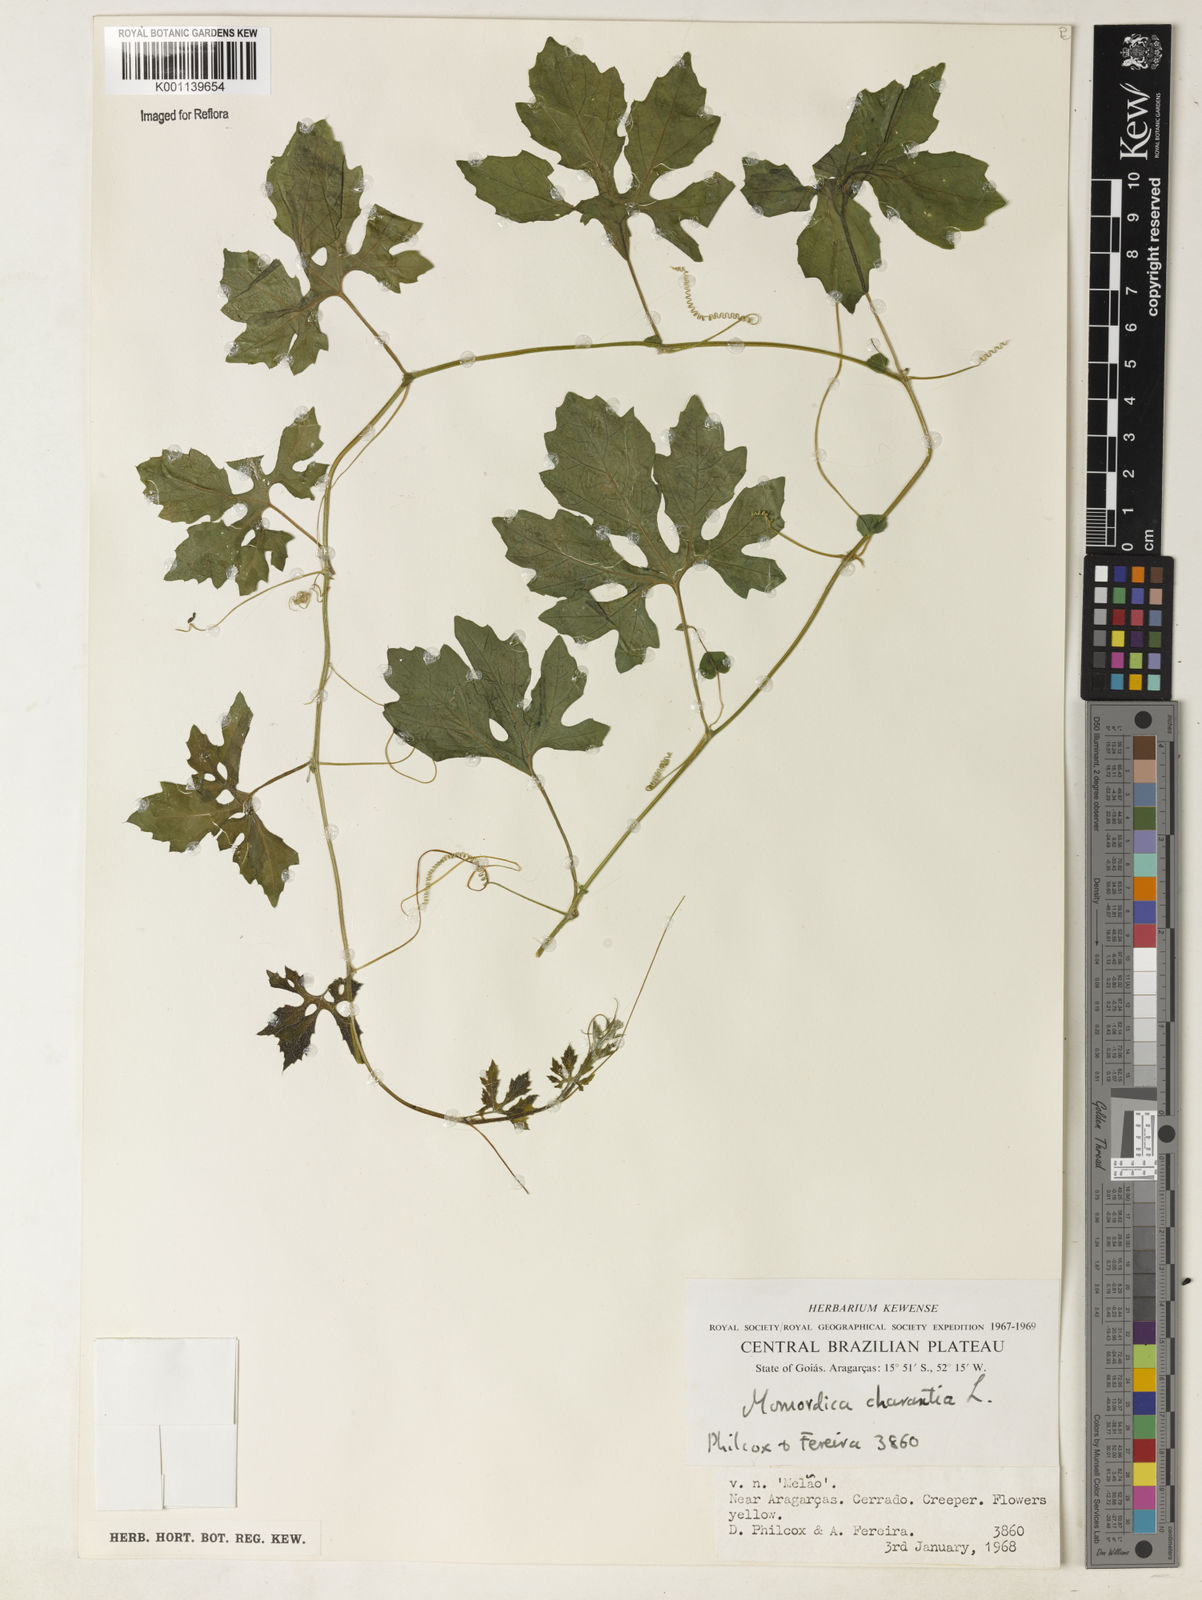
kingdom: Plantae
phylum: Tracheophyta
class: Magnoliopsida
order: Cucurbitales
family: Cucurbitaceae
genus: Momordica
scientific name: Momordica charantia
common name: Balsampear
